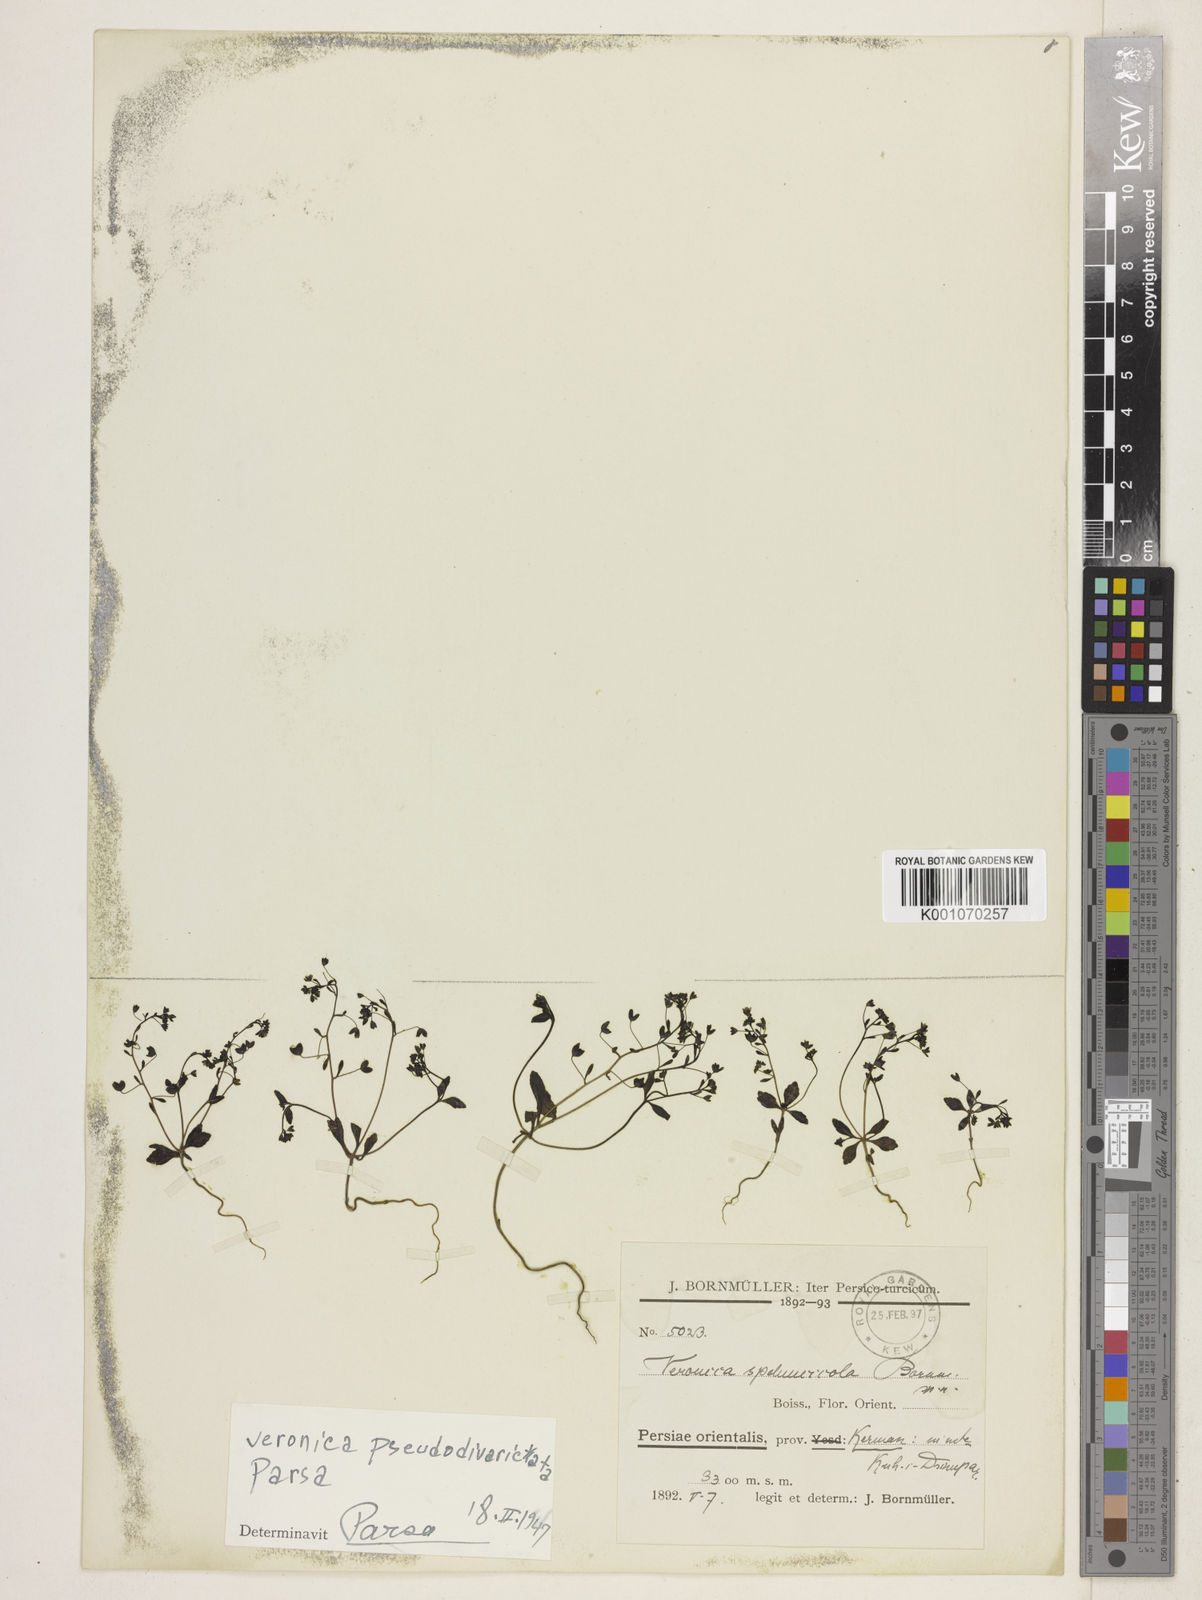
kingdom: Plantae
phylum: Tracheophyta
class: Magnoliopsida
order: Lamiales
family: Plantaginaceae
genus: Veronica
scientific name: Veronica
